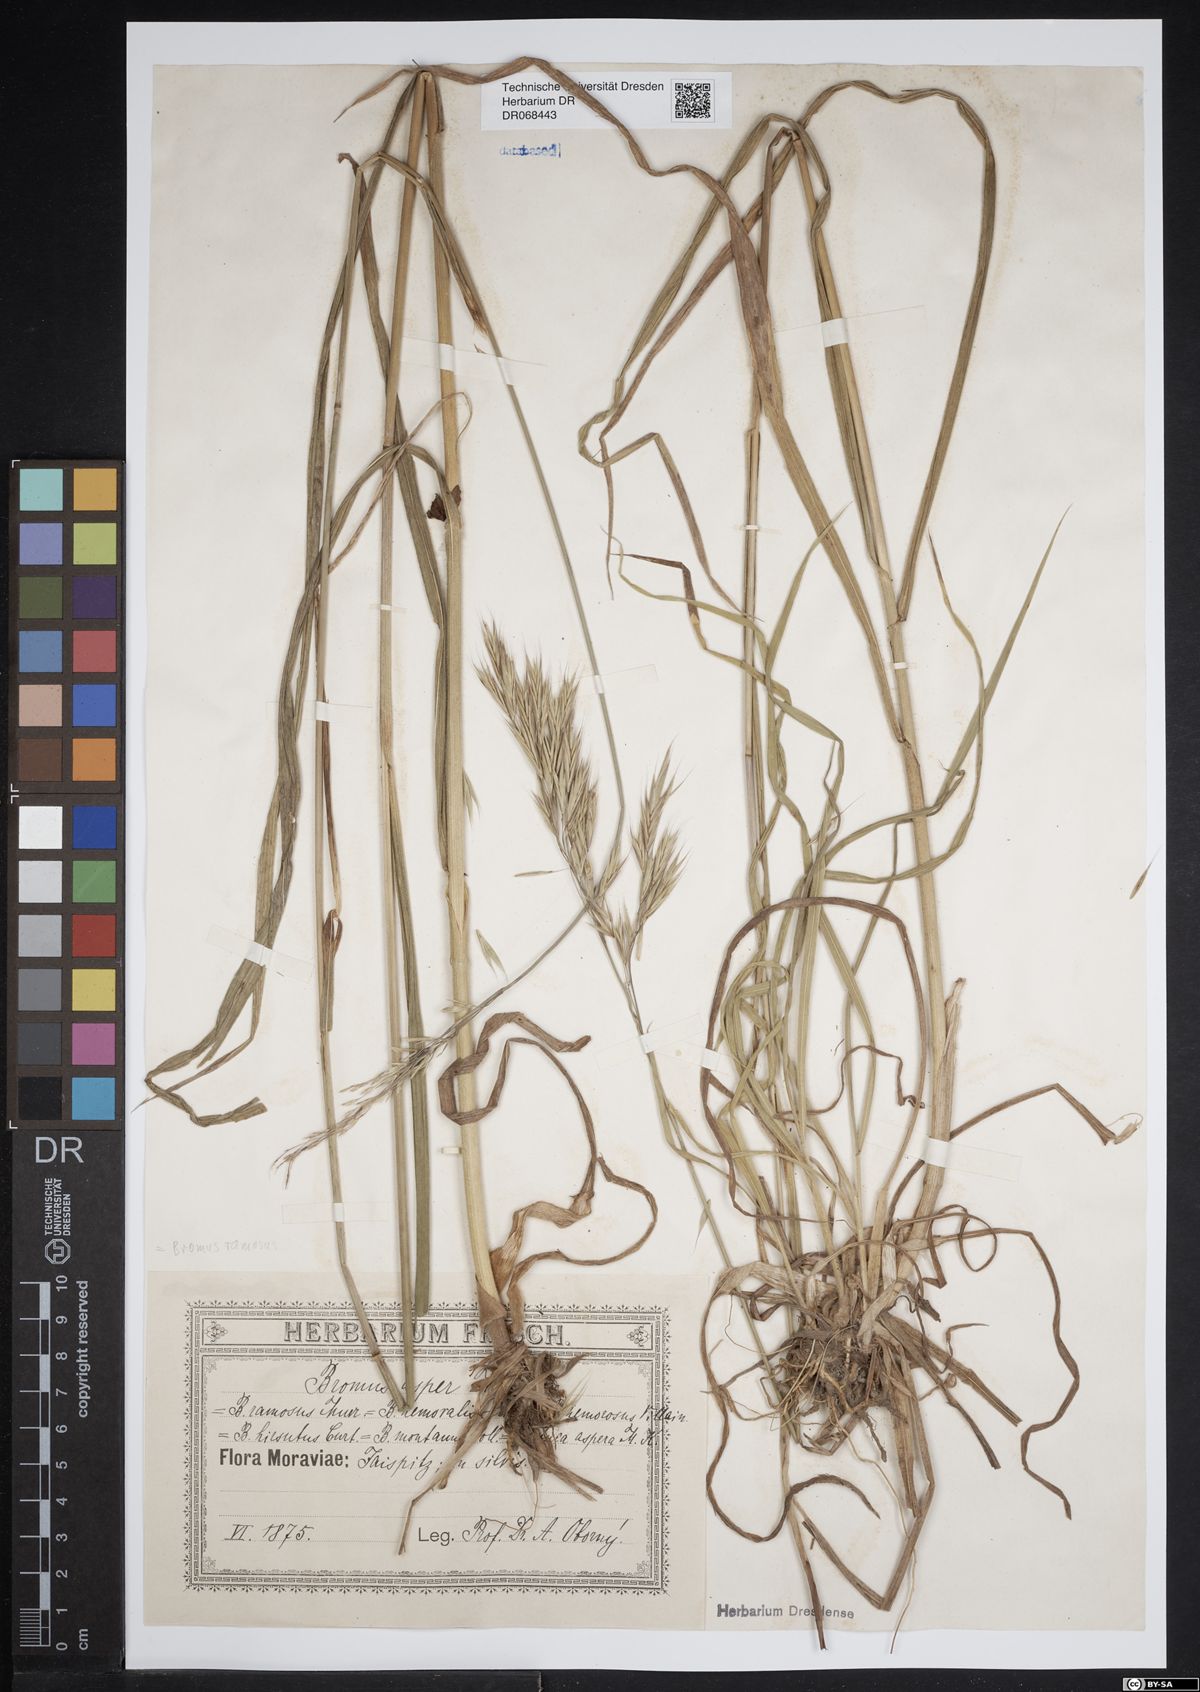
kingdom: Plantae
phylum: Tracheophyta
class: Liliopsida
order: Poales
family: Poaceae
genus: Bromus
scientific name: Bromus ramosus
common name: Hairy brome
